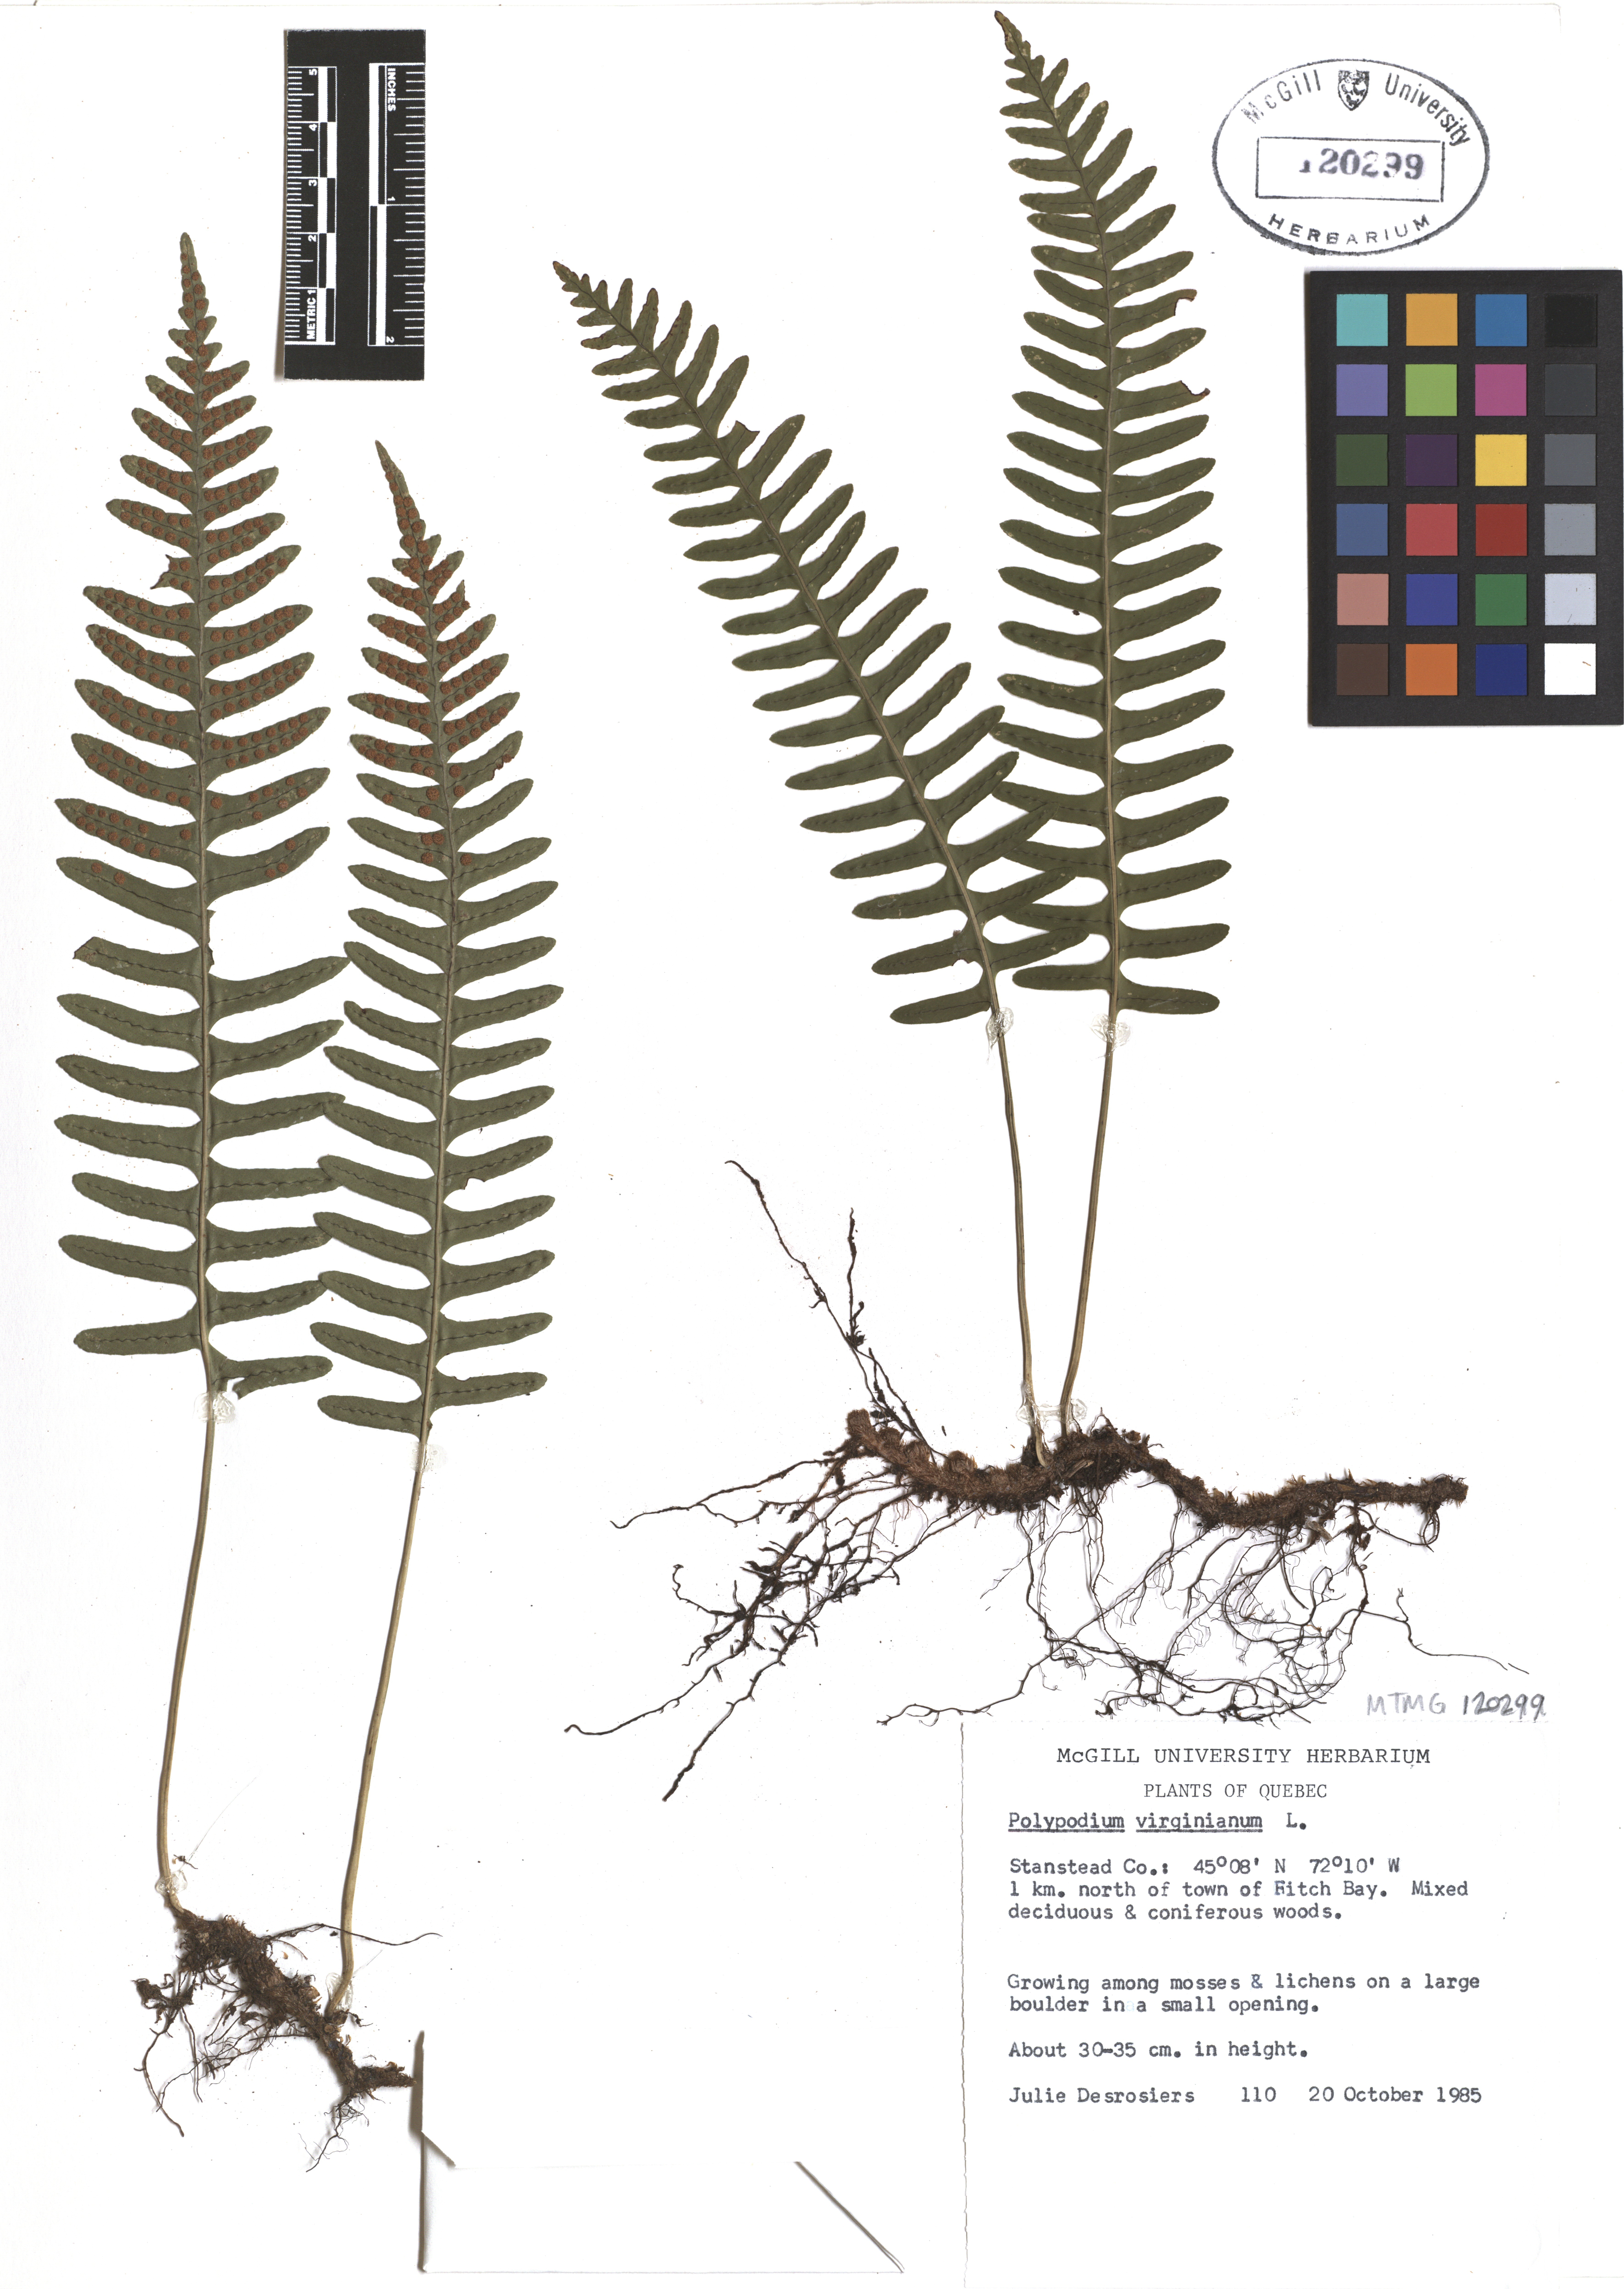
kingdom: Plantae
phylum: Tracheophyta
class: Polypodiopsida
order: Polypodiales
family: Polypodiaceae
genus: Polypodium
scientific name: Polypodium virginianum
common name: American wall fern
